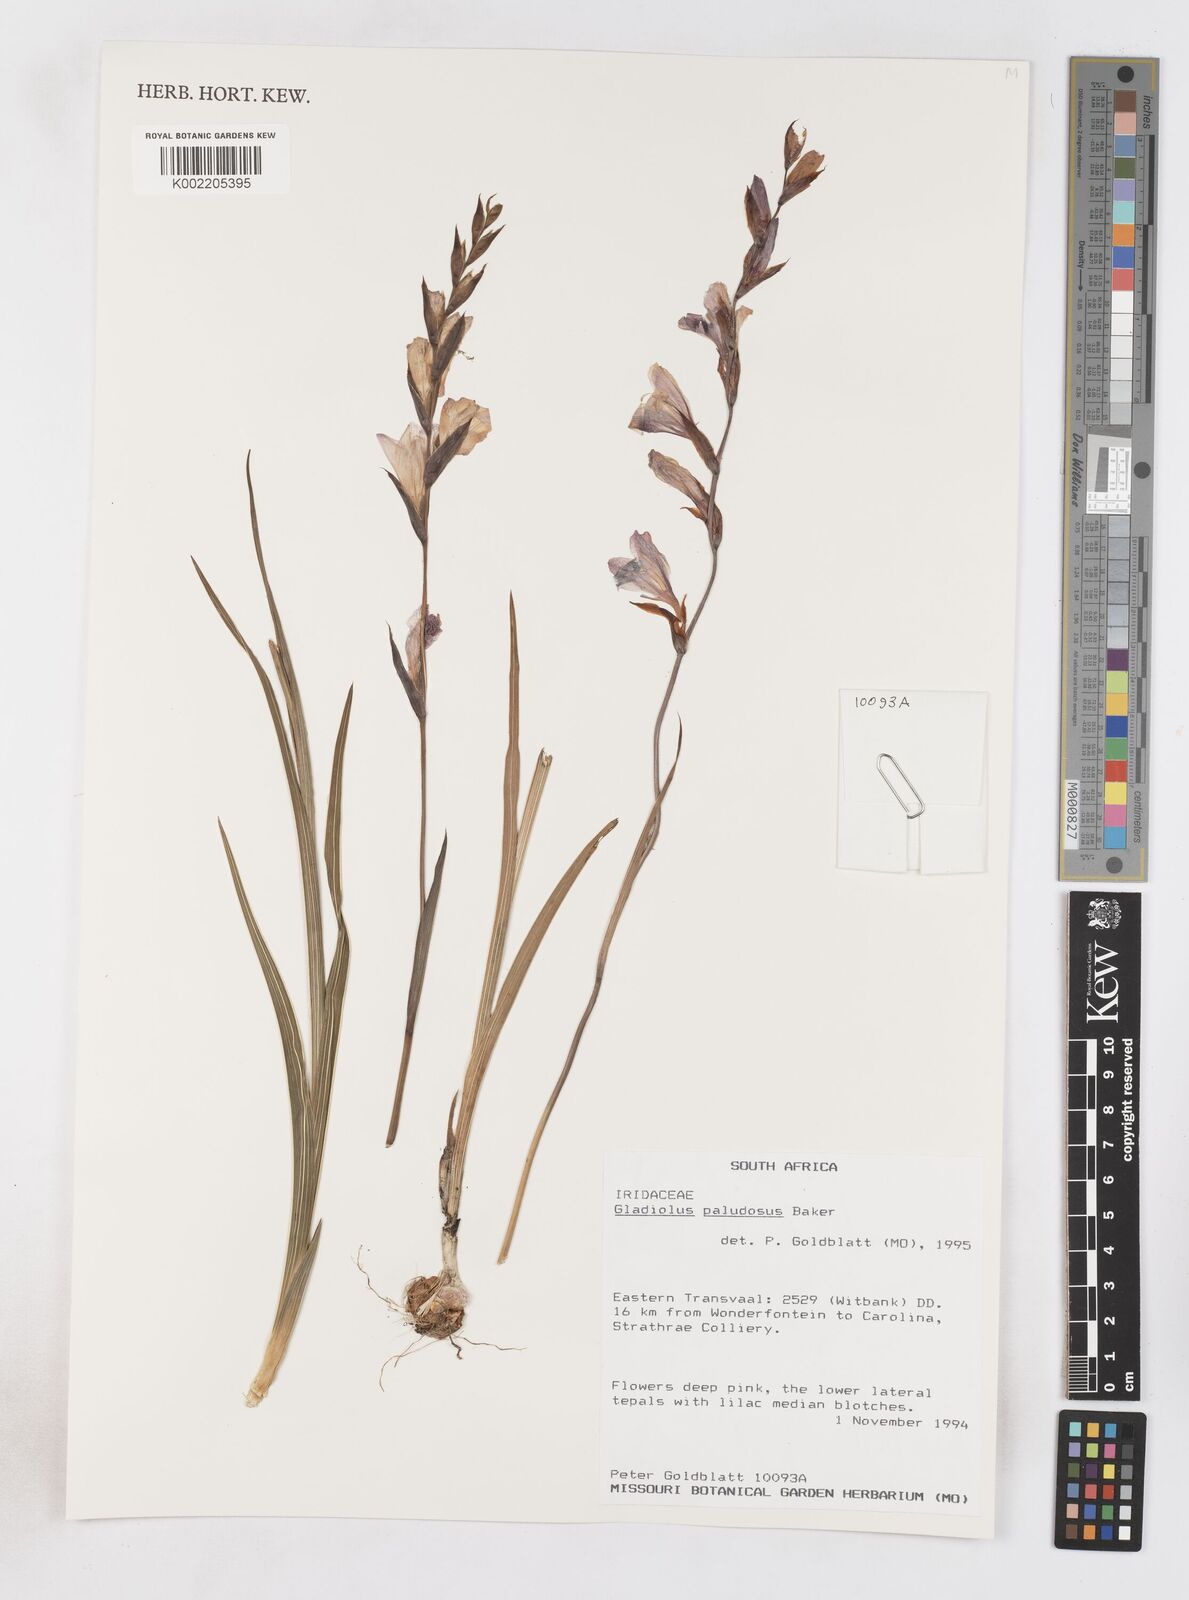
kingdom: Plantae
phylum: Tracheophyta
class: Liliopsida
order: Asparagales
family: Iridaceae
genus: Gladiolus
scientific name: Gladiolus crassifolius
